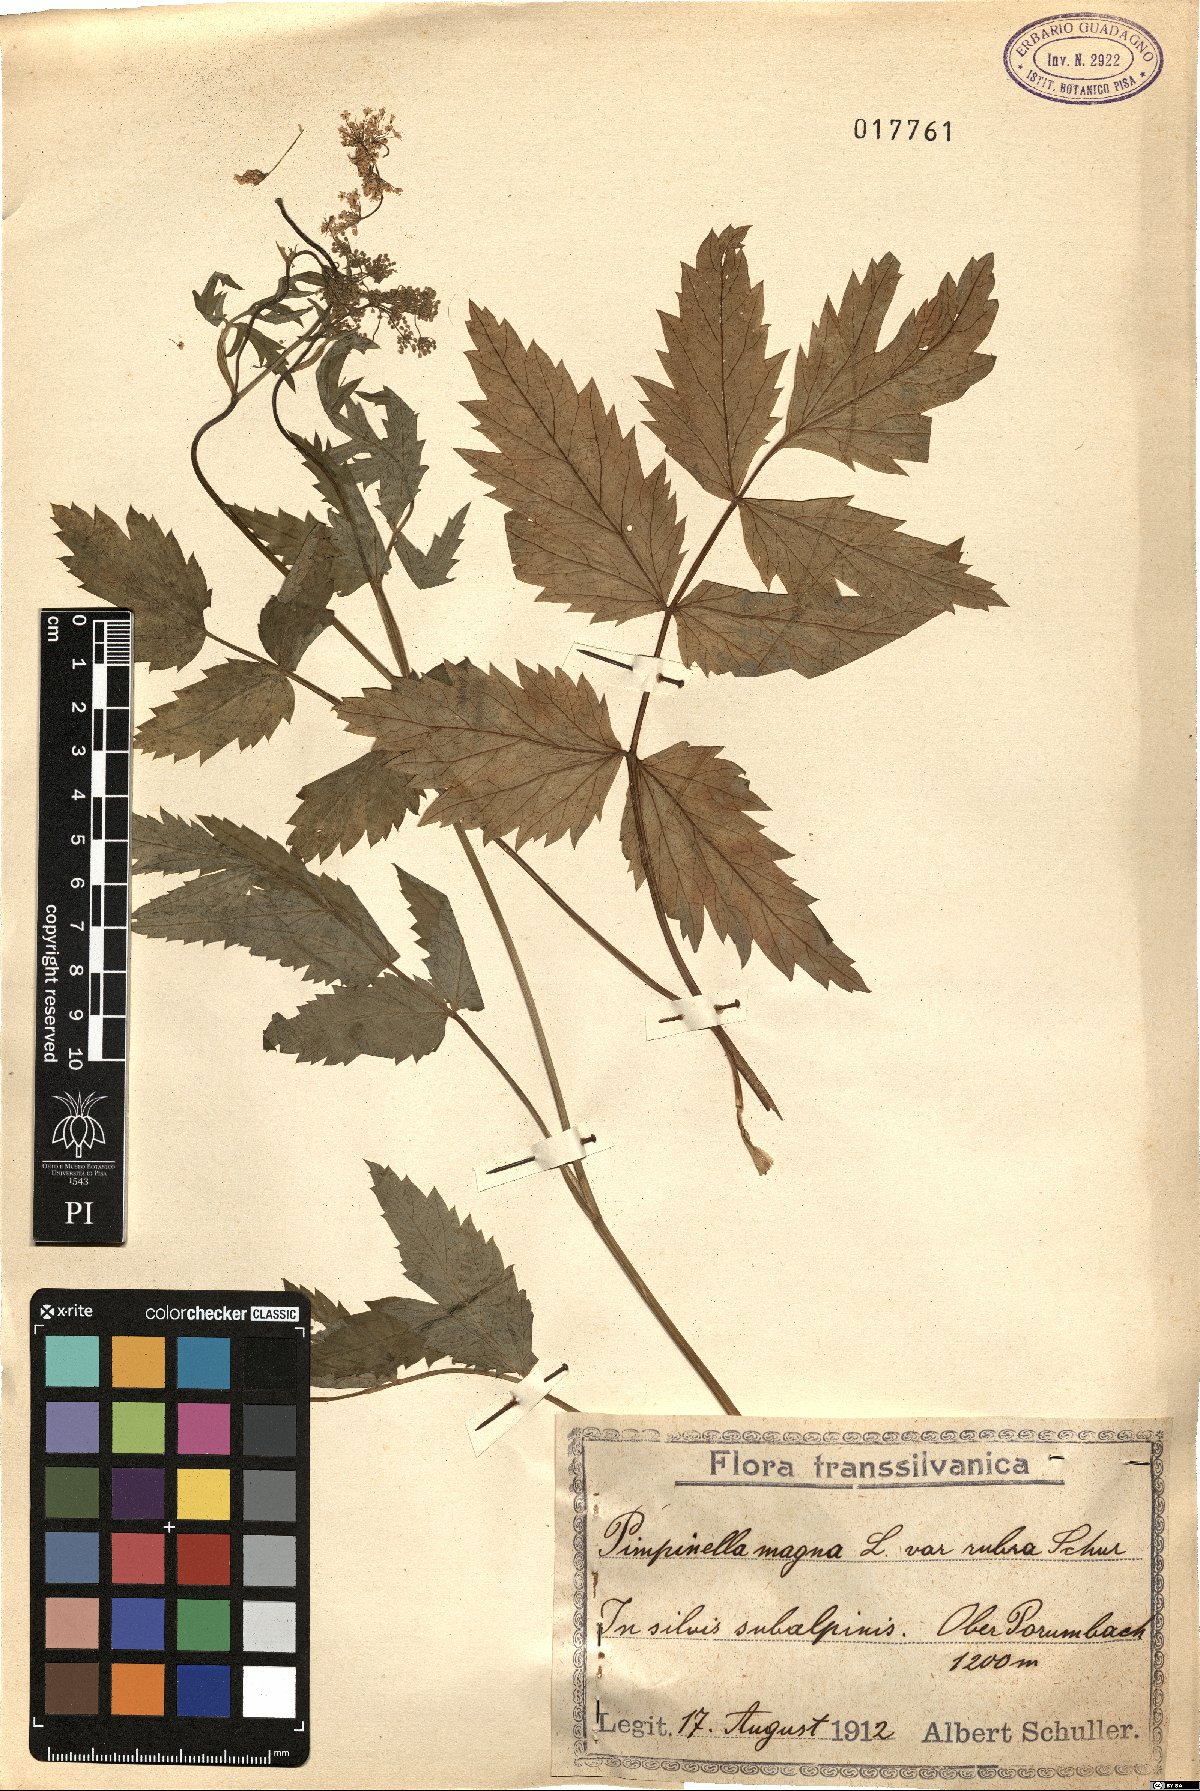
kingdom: Plantae
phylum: Tracheophyta
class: Magnoliopsida
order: Apiales
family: Apiaceae
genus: Pimpinella
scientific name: Pimpinella major
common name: Greater burnet-saxifrage
